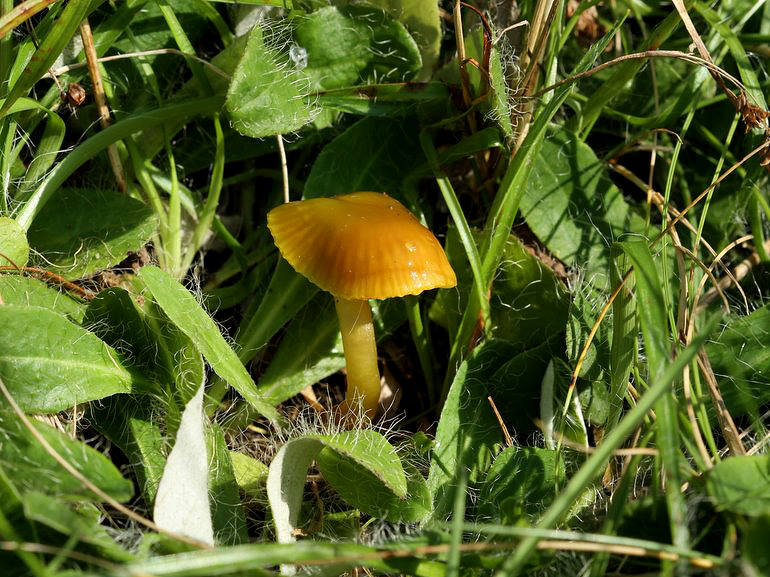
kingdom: Fungi
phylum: Basidiomycota
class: Agaricomycetes
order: Agaricales
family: Hygrophoraceae
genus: Gliophorus
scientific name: Gliophorus psittacinus
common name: papegøje-vokshat
